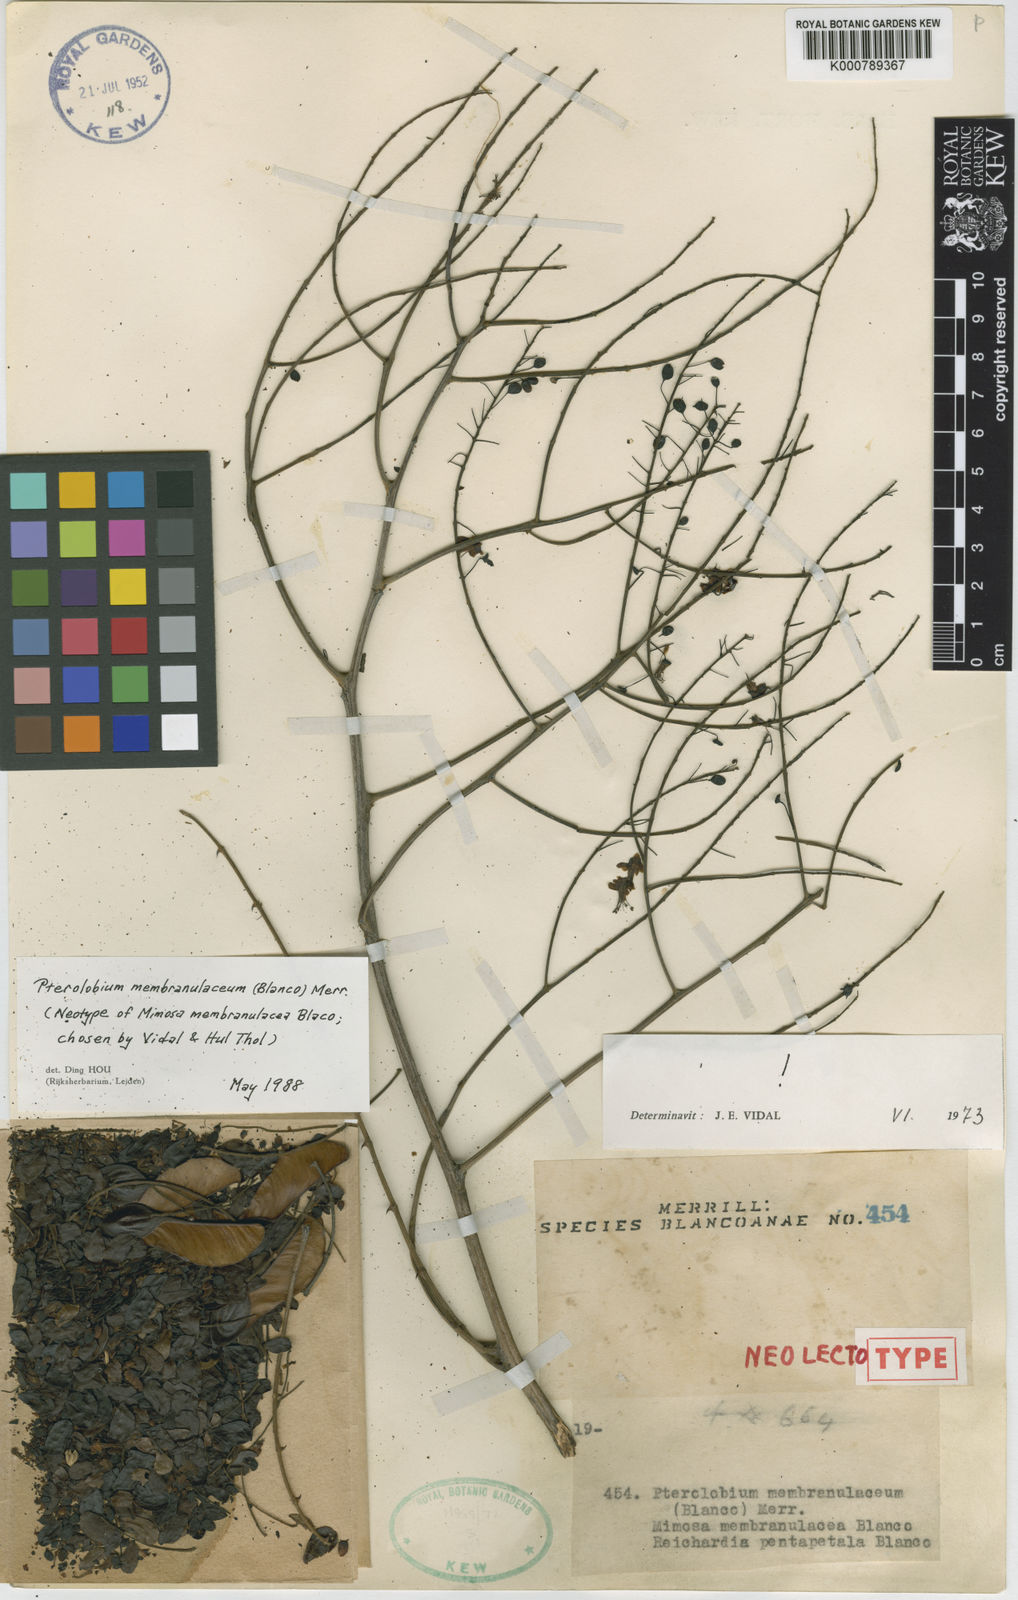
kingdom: Plantae
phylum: Tracheophyta
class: Magnoliopsida
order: Fabales
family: Fabaceae
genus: Pterolobium
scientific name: Pterolobium membranulaceum
